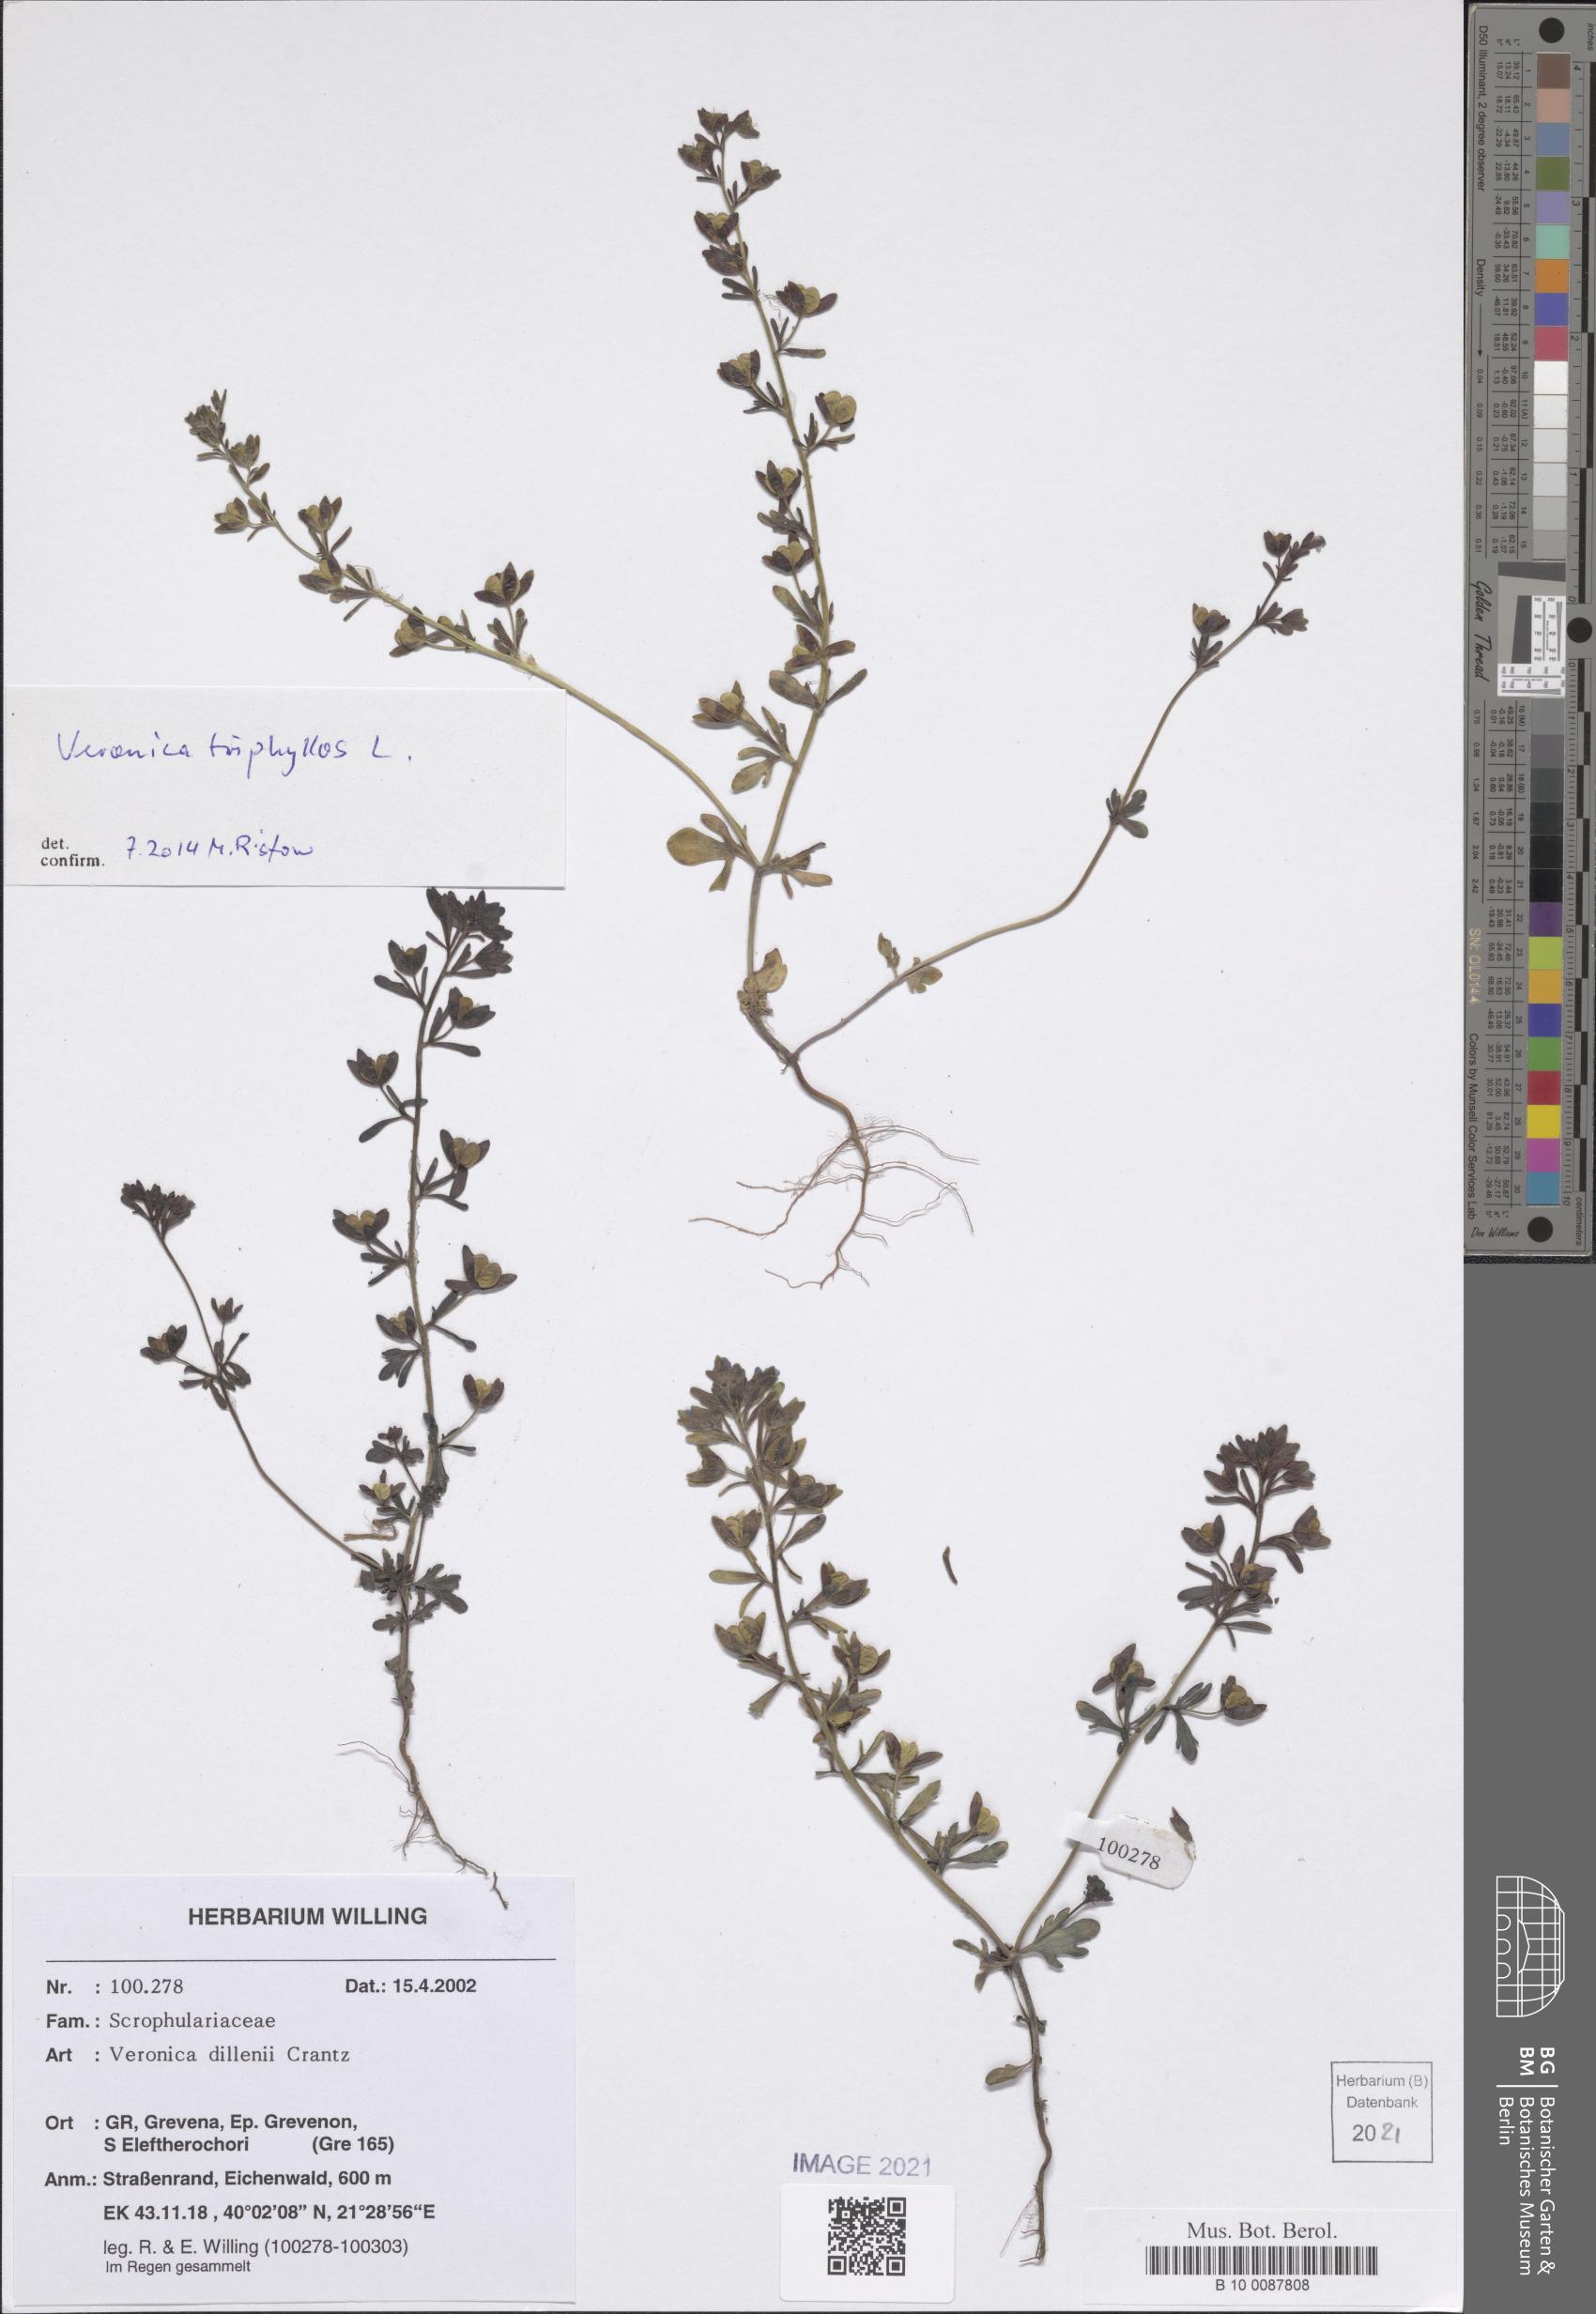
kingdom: Plantae
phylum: Tracheophyta
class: Magnoliopsida
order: Lamiales
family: Plantaginaceae
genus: Veronica
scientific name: Veronica triphyllos
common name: Fingered speedwell
